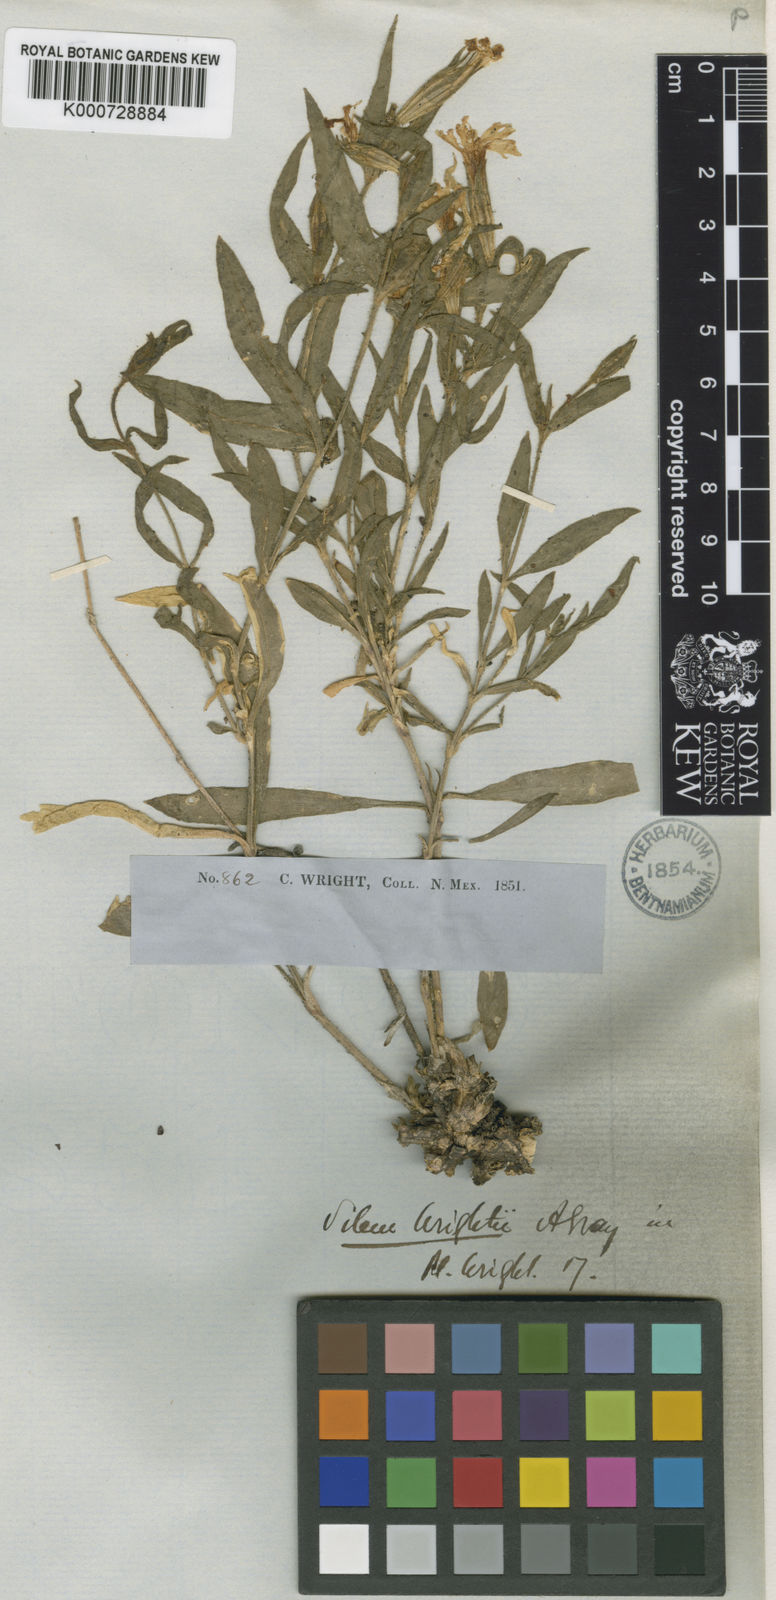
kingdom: Plantae
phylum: Tracheophyta
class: Magnoliopsida
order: Caryophyllales
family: Caryophyllaceae
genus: Silene
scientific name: Silene wrightii
